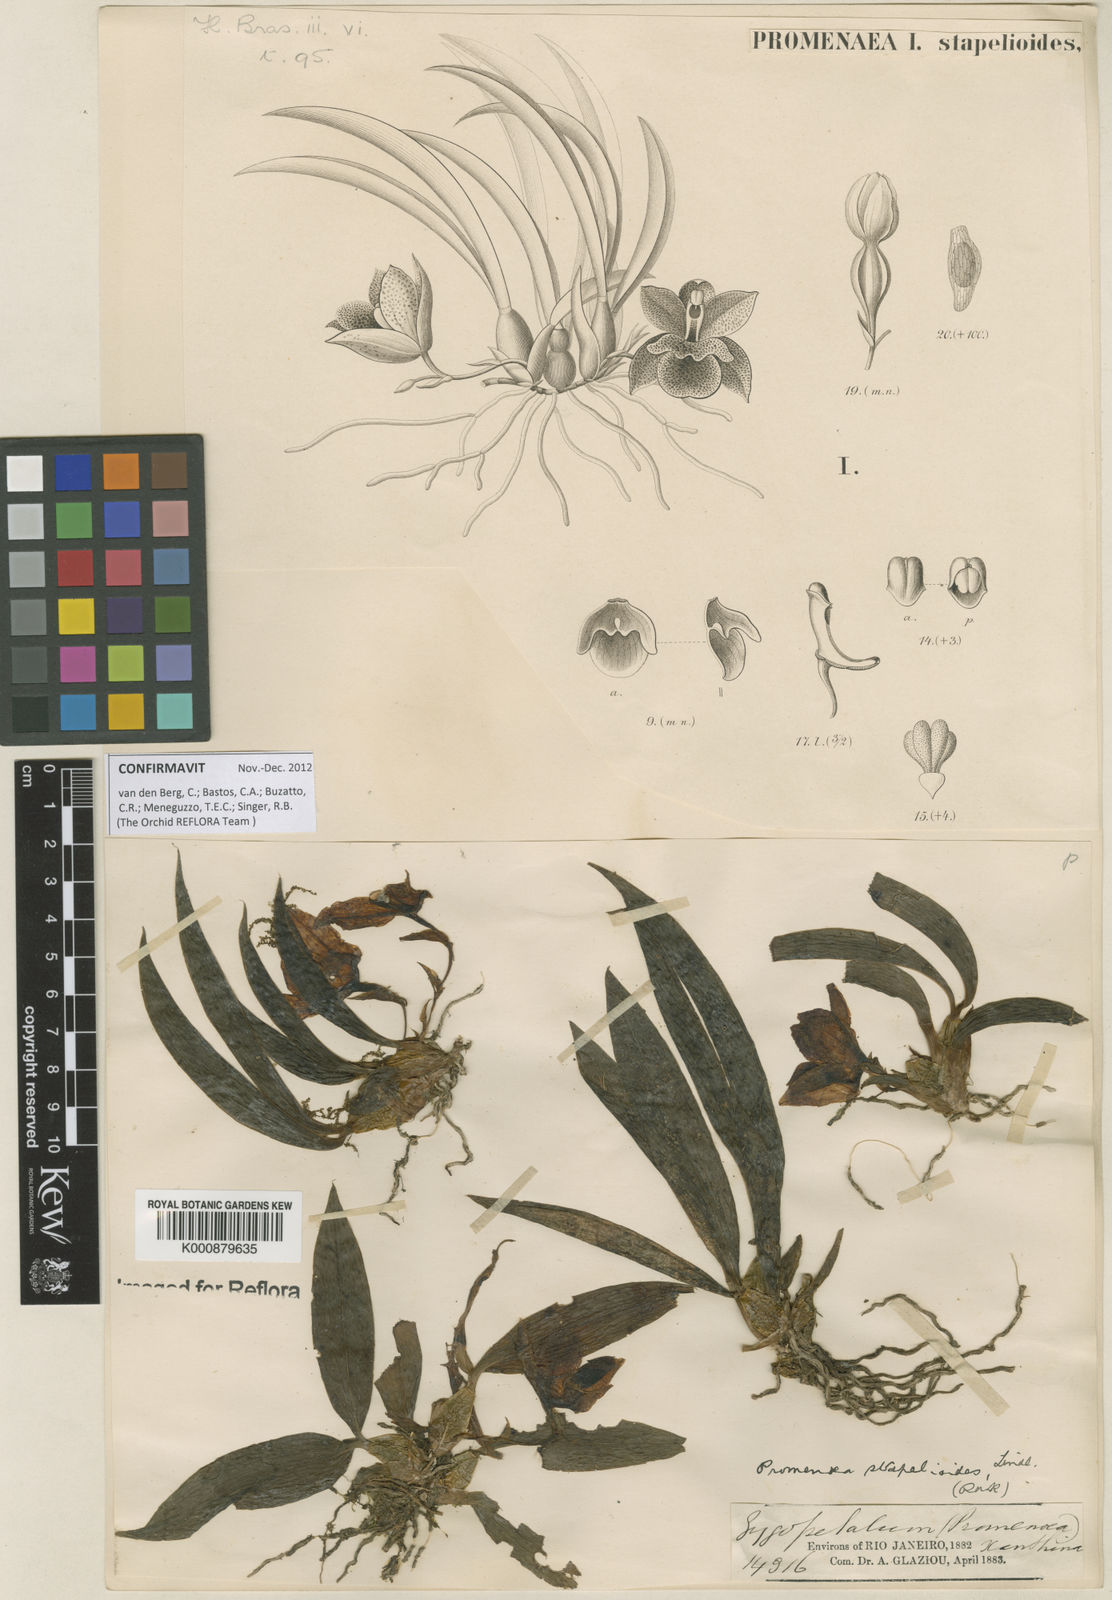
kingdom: Plantae
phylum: Tracheophyta
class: Liliopsida
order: Asparagales
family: Orchidaceae
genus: Promenaea
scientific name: Promenaea stapelioides
